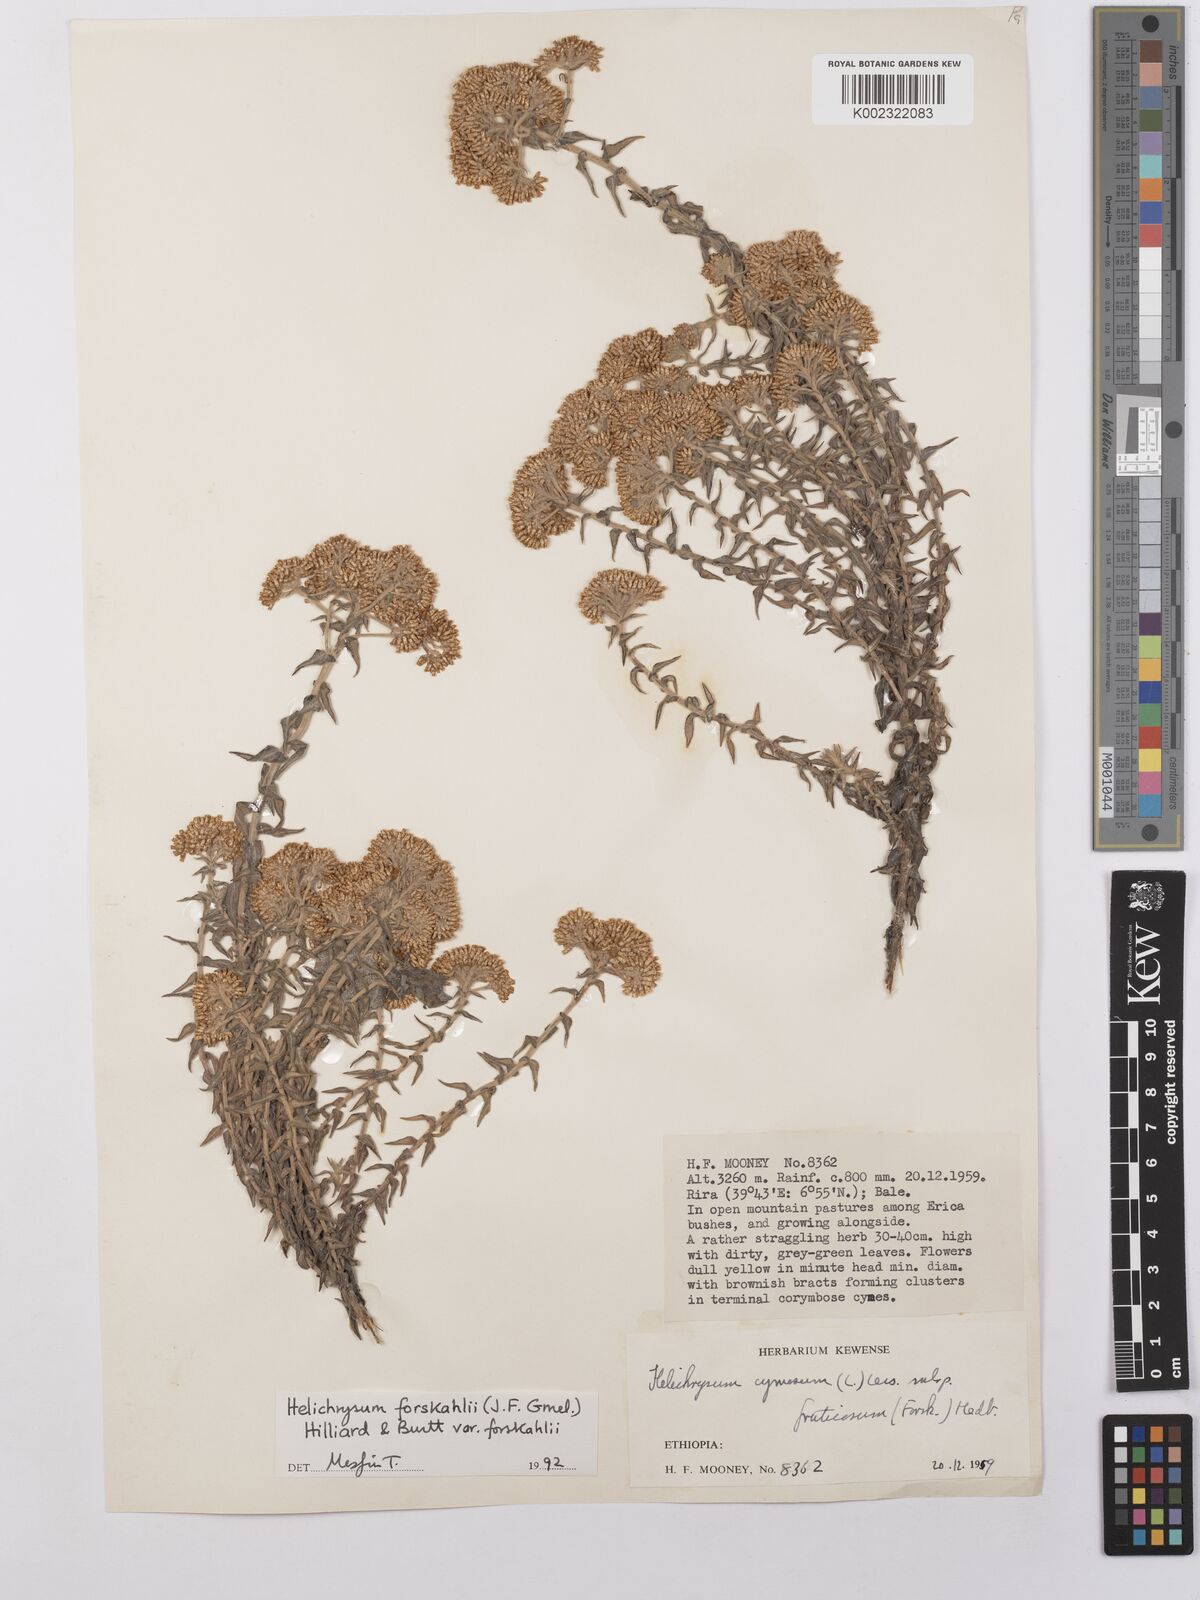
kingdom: Plantae
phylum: Tracheophyta
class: Magnoliopsida
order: Asterales
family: Asteraceae
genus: Helichrysum
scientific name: Helichrysum forskahlii
